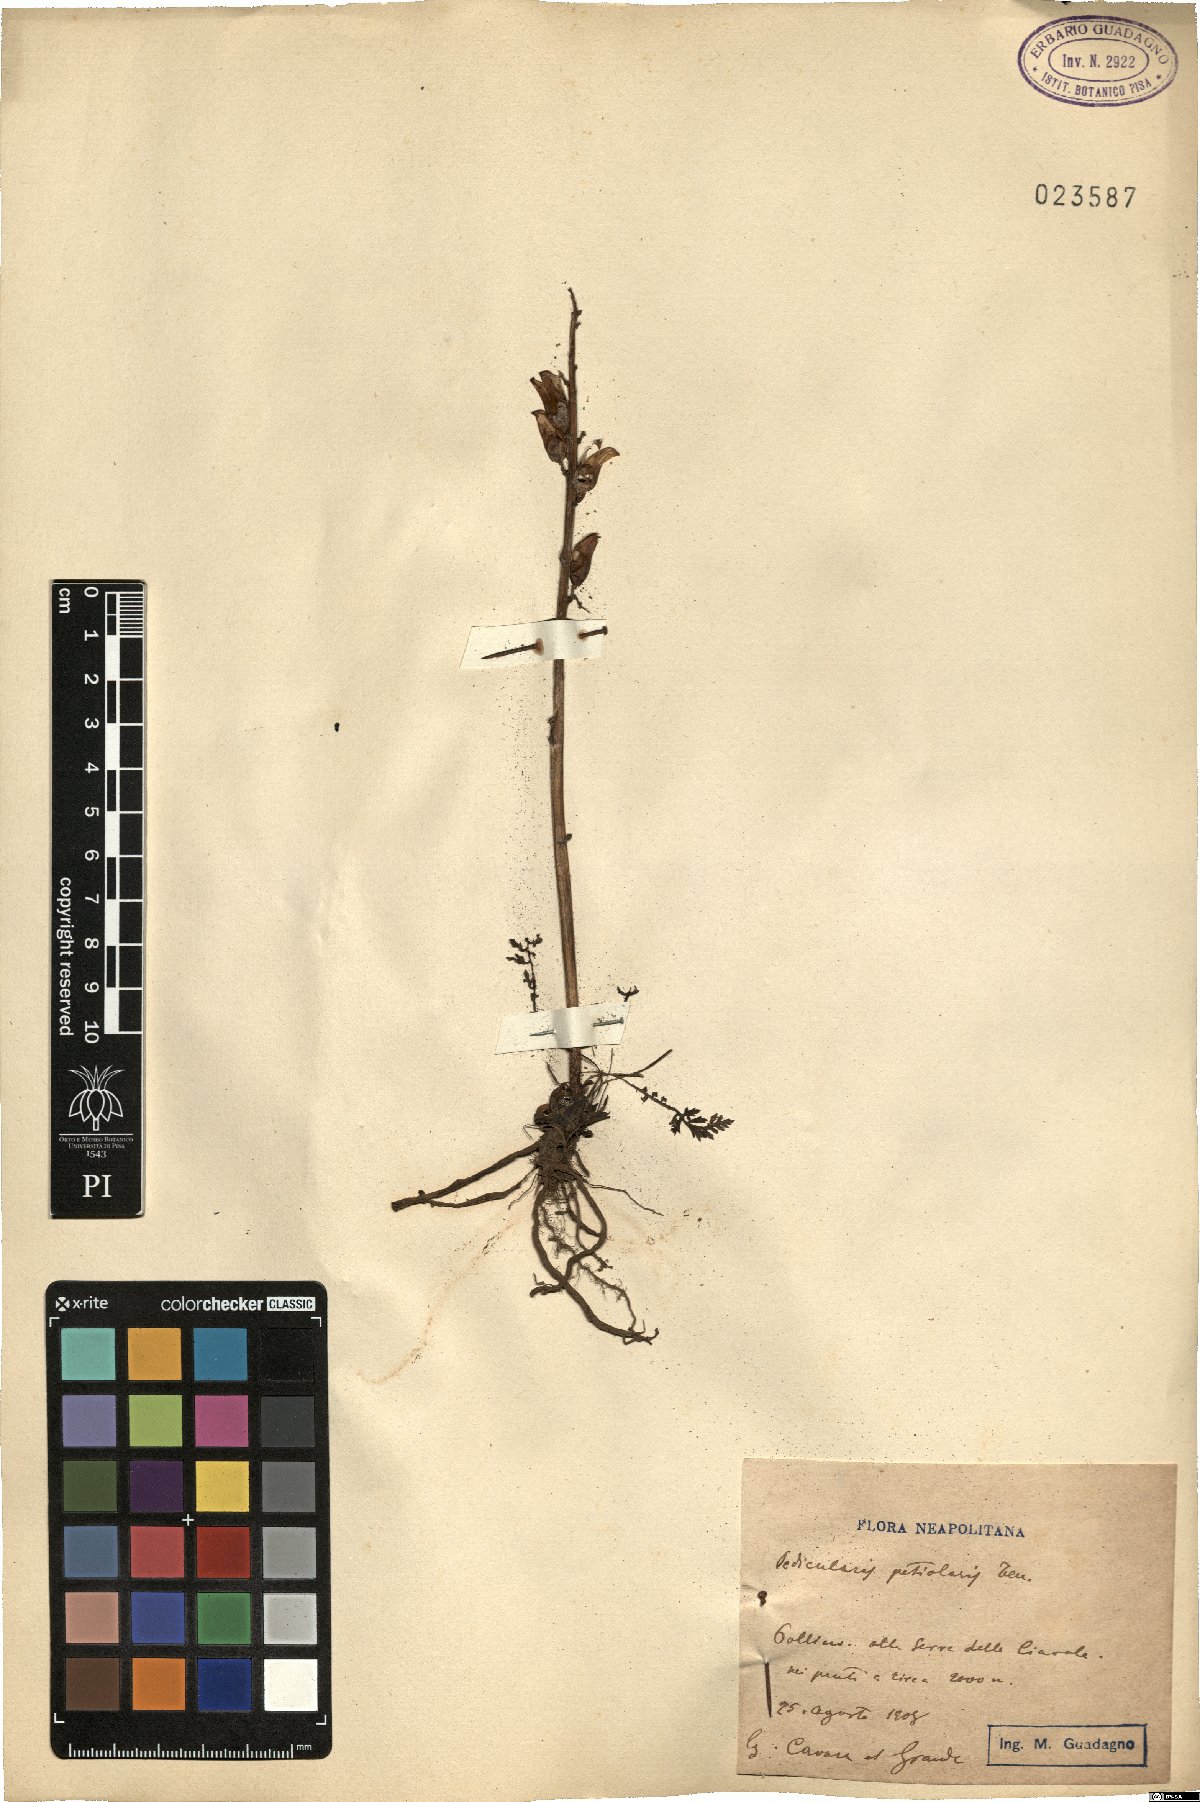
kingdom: Plantae
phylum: Tracheophyta
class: Magnoliopsida
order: Lamiales
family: Orobanchaceae
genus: Pedicularis
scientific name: Pedicularis petiolaris
